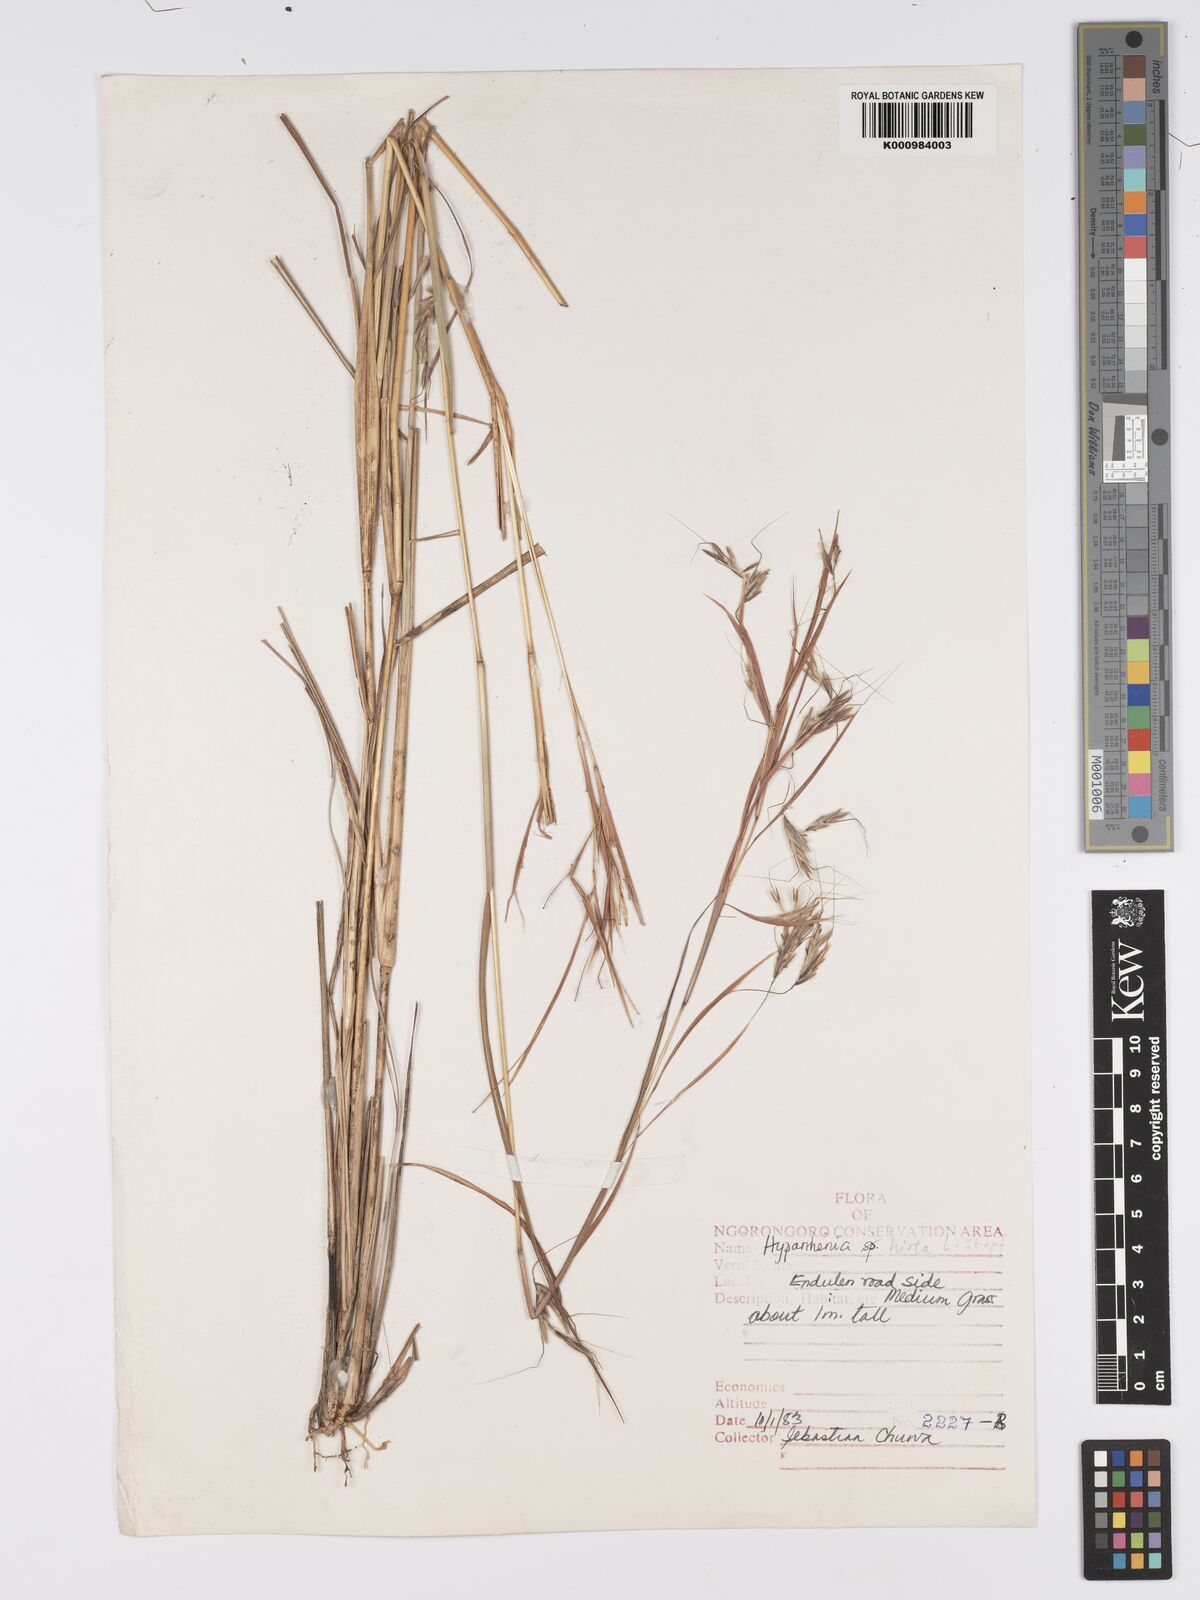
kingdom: Plantae
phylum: Tracheophyta
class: Liliopsida
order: Poales
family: Poaceae
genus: Hyparrhenia
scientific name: Hyparrhenia hirta
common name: Thatching grass
